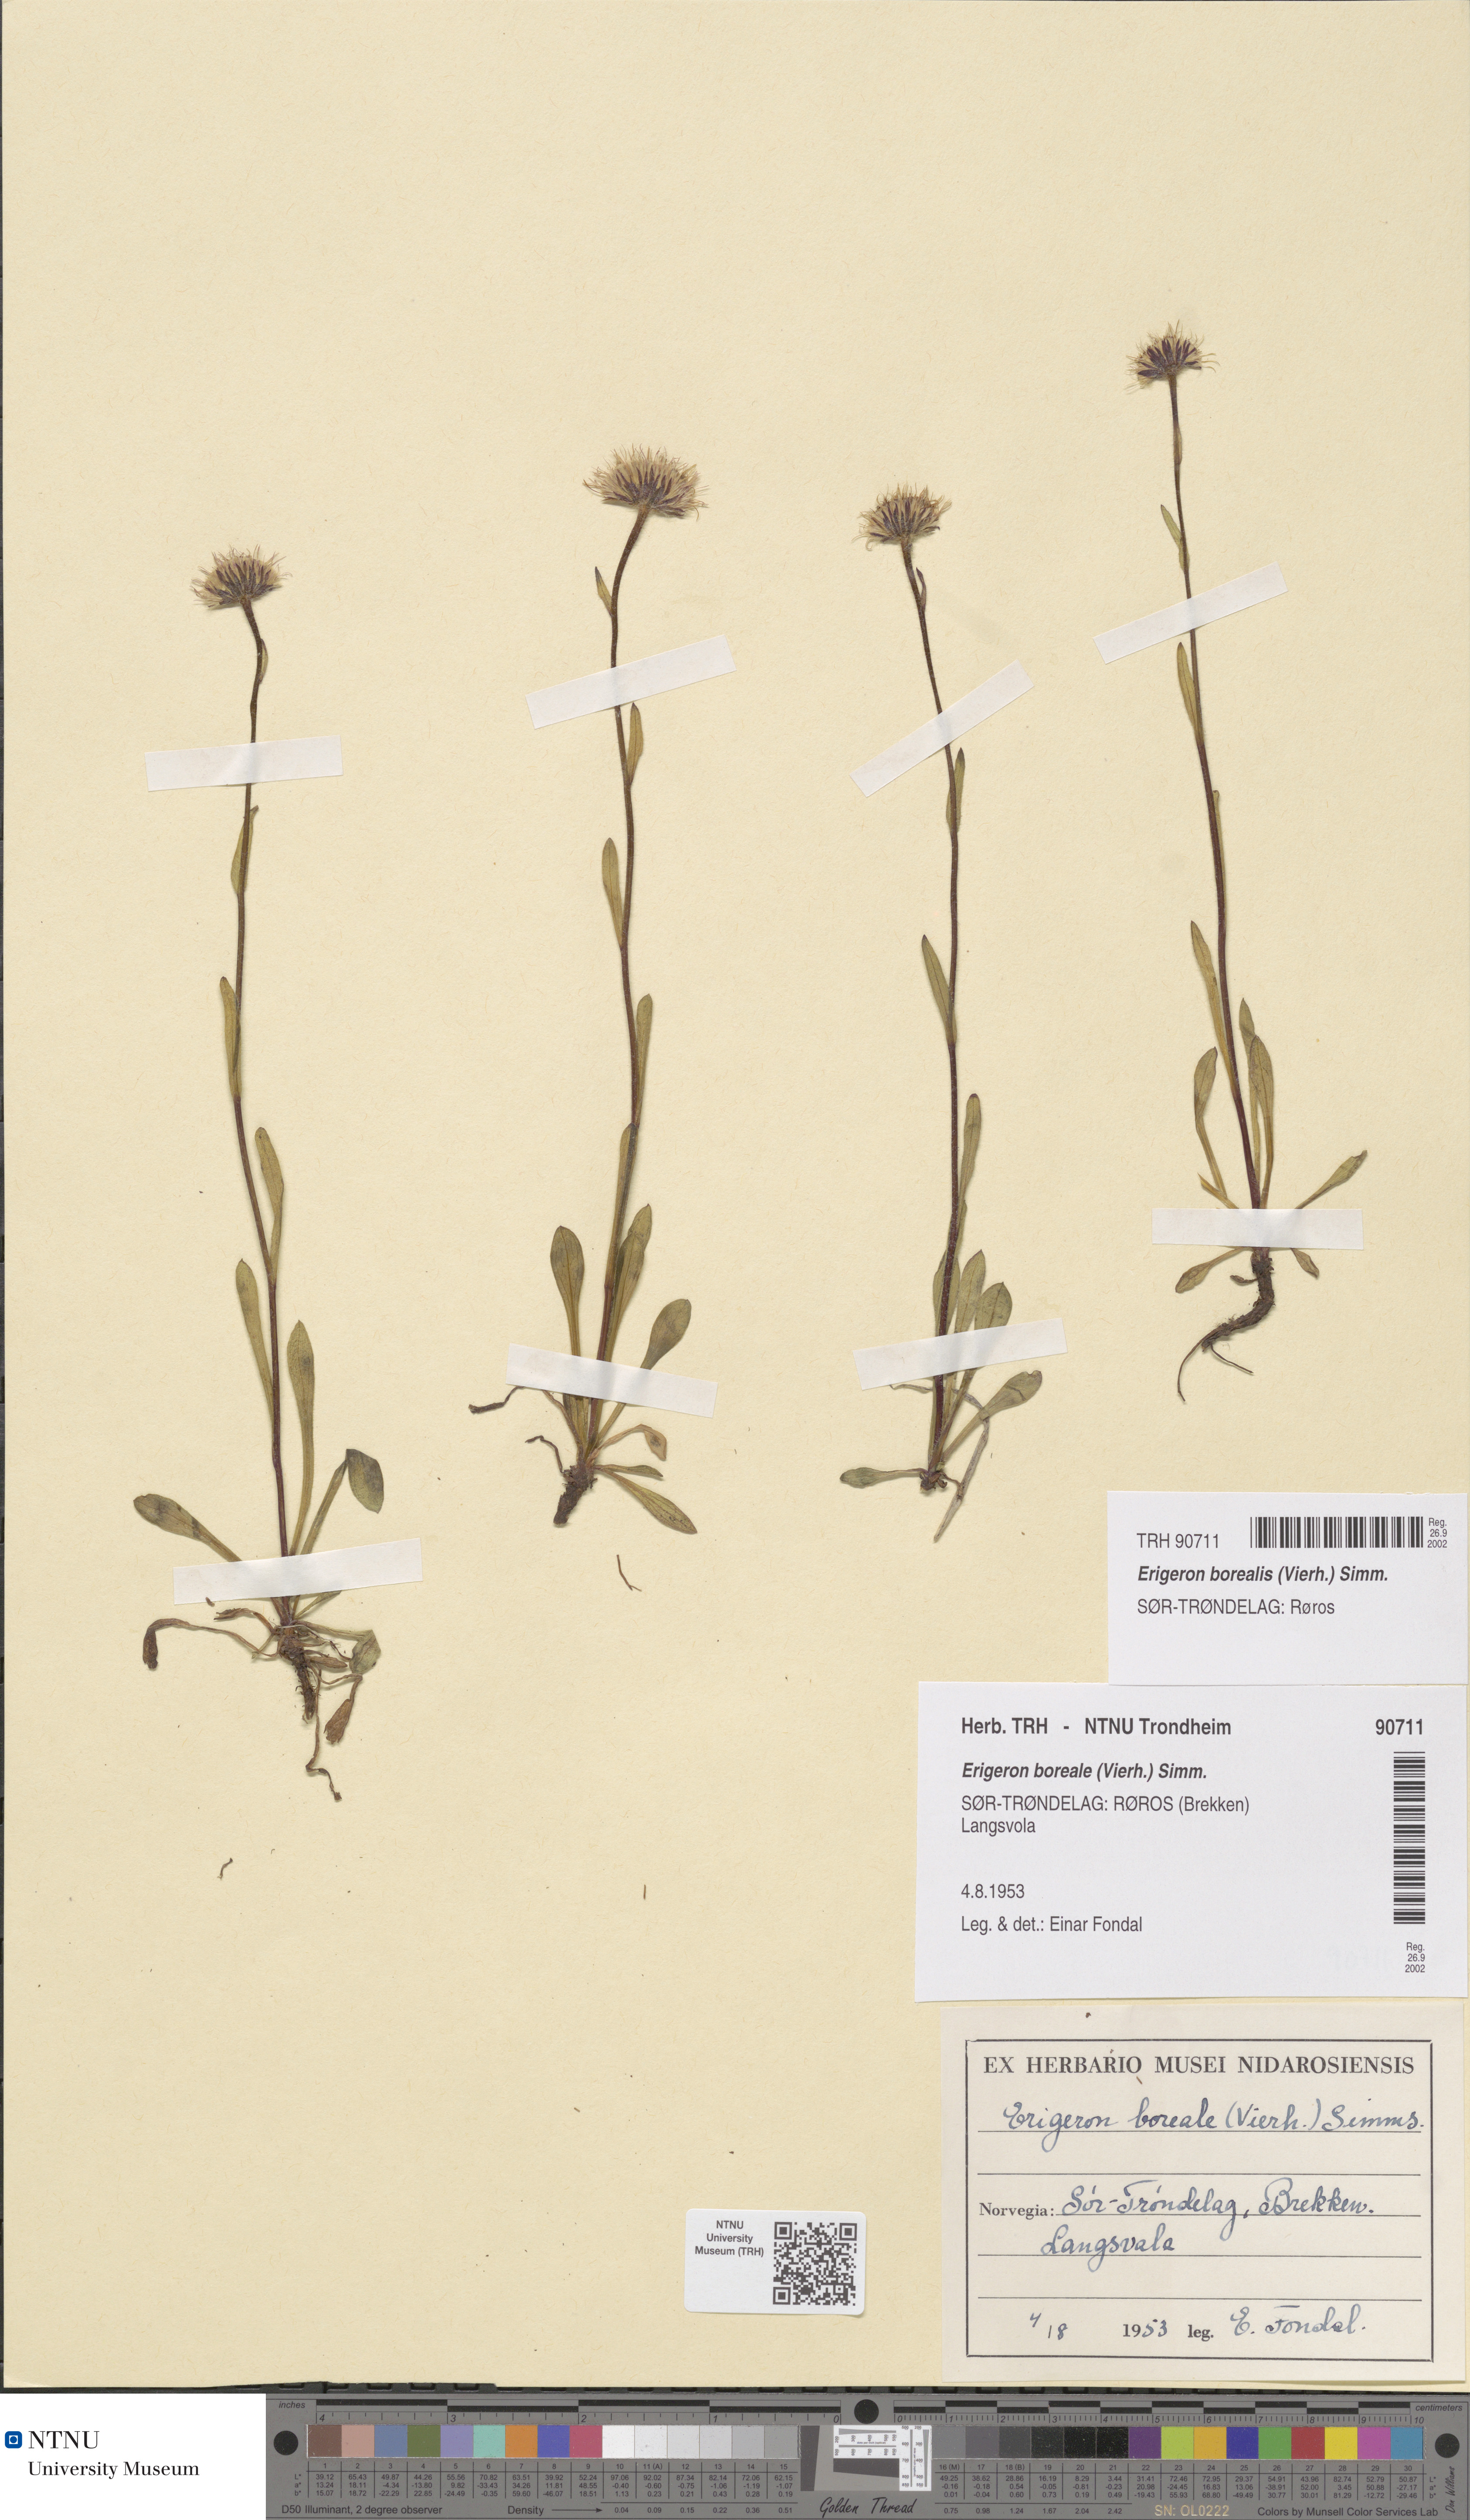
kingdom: Plantae
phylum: Tracheophyta
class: Magnoliopsida
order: Asterales
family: Asteraceae
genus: Erigeron
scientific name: Erigeron borealis
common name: Alpine fleabane
